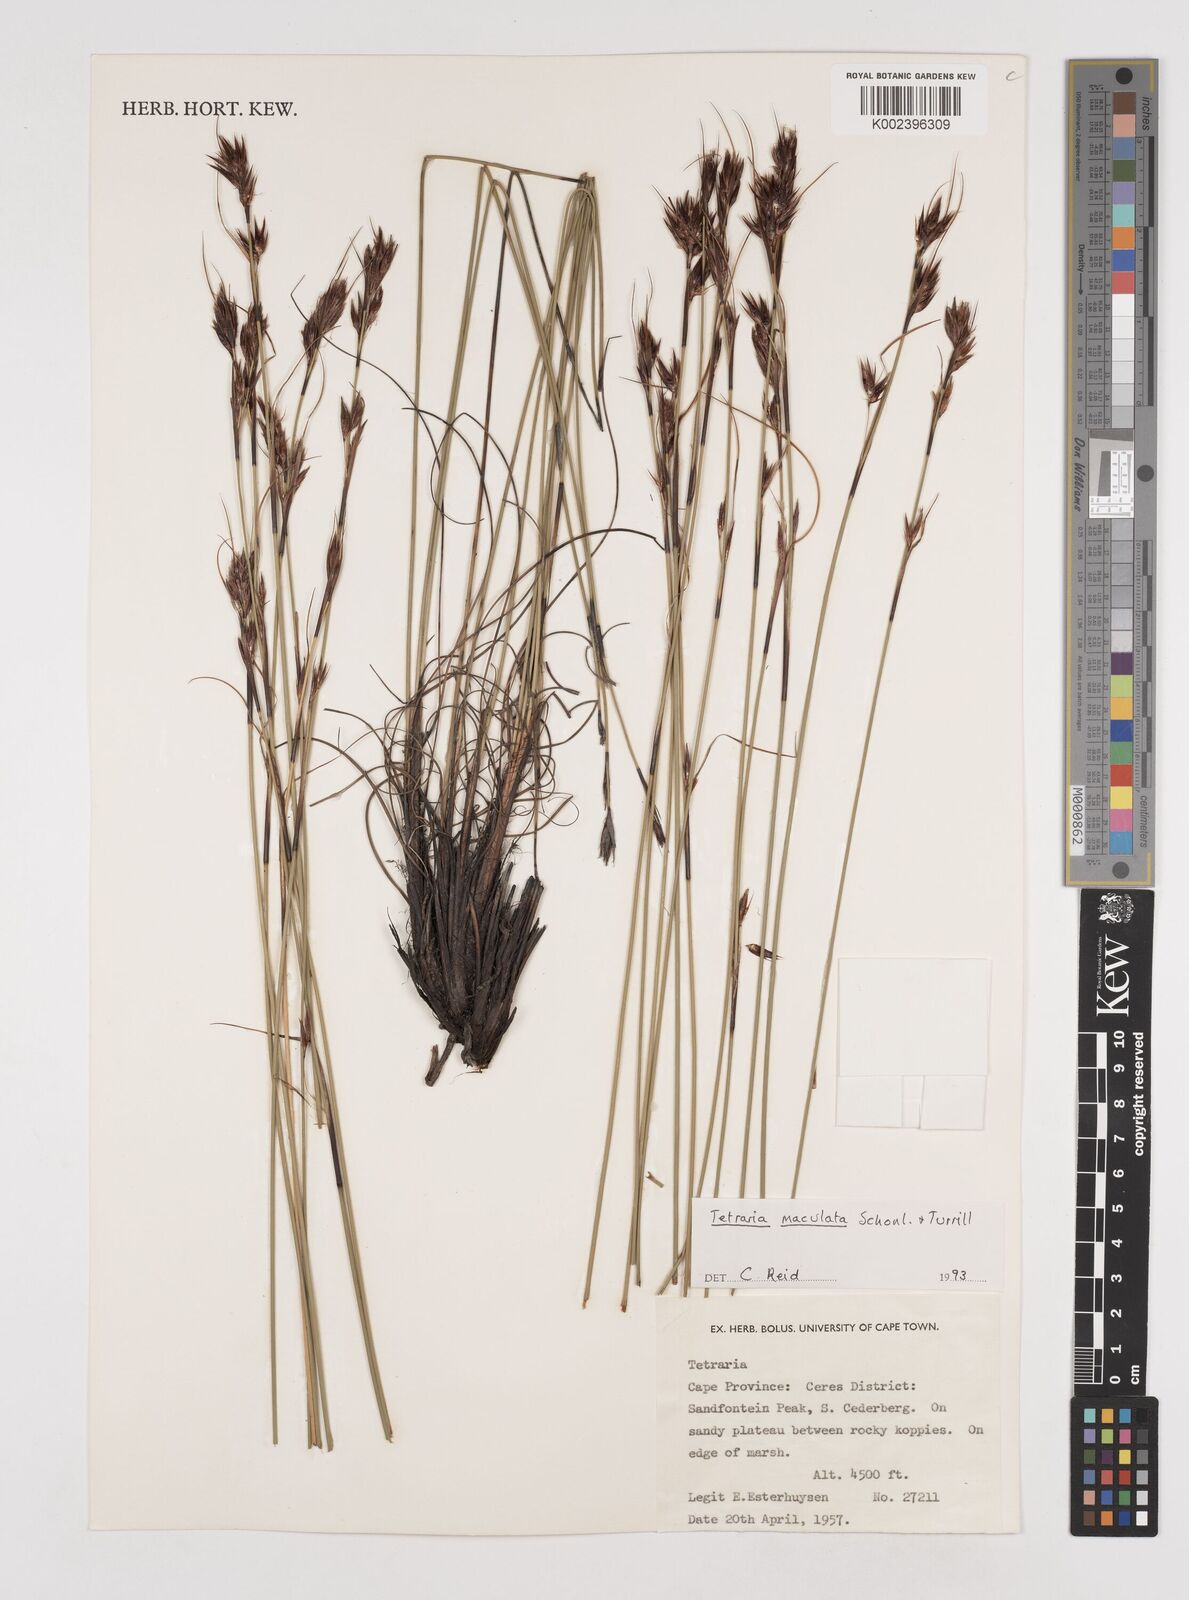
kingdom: Plantae
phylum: Tracheophyta
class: Liliopsida
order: Poales
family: Cyperaceae
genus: Tetraria
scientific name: Tetraria maculata
